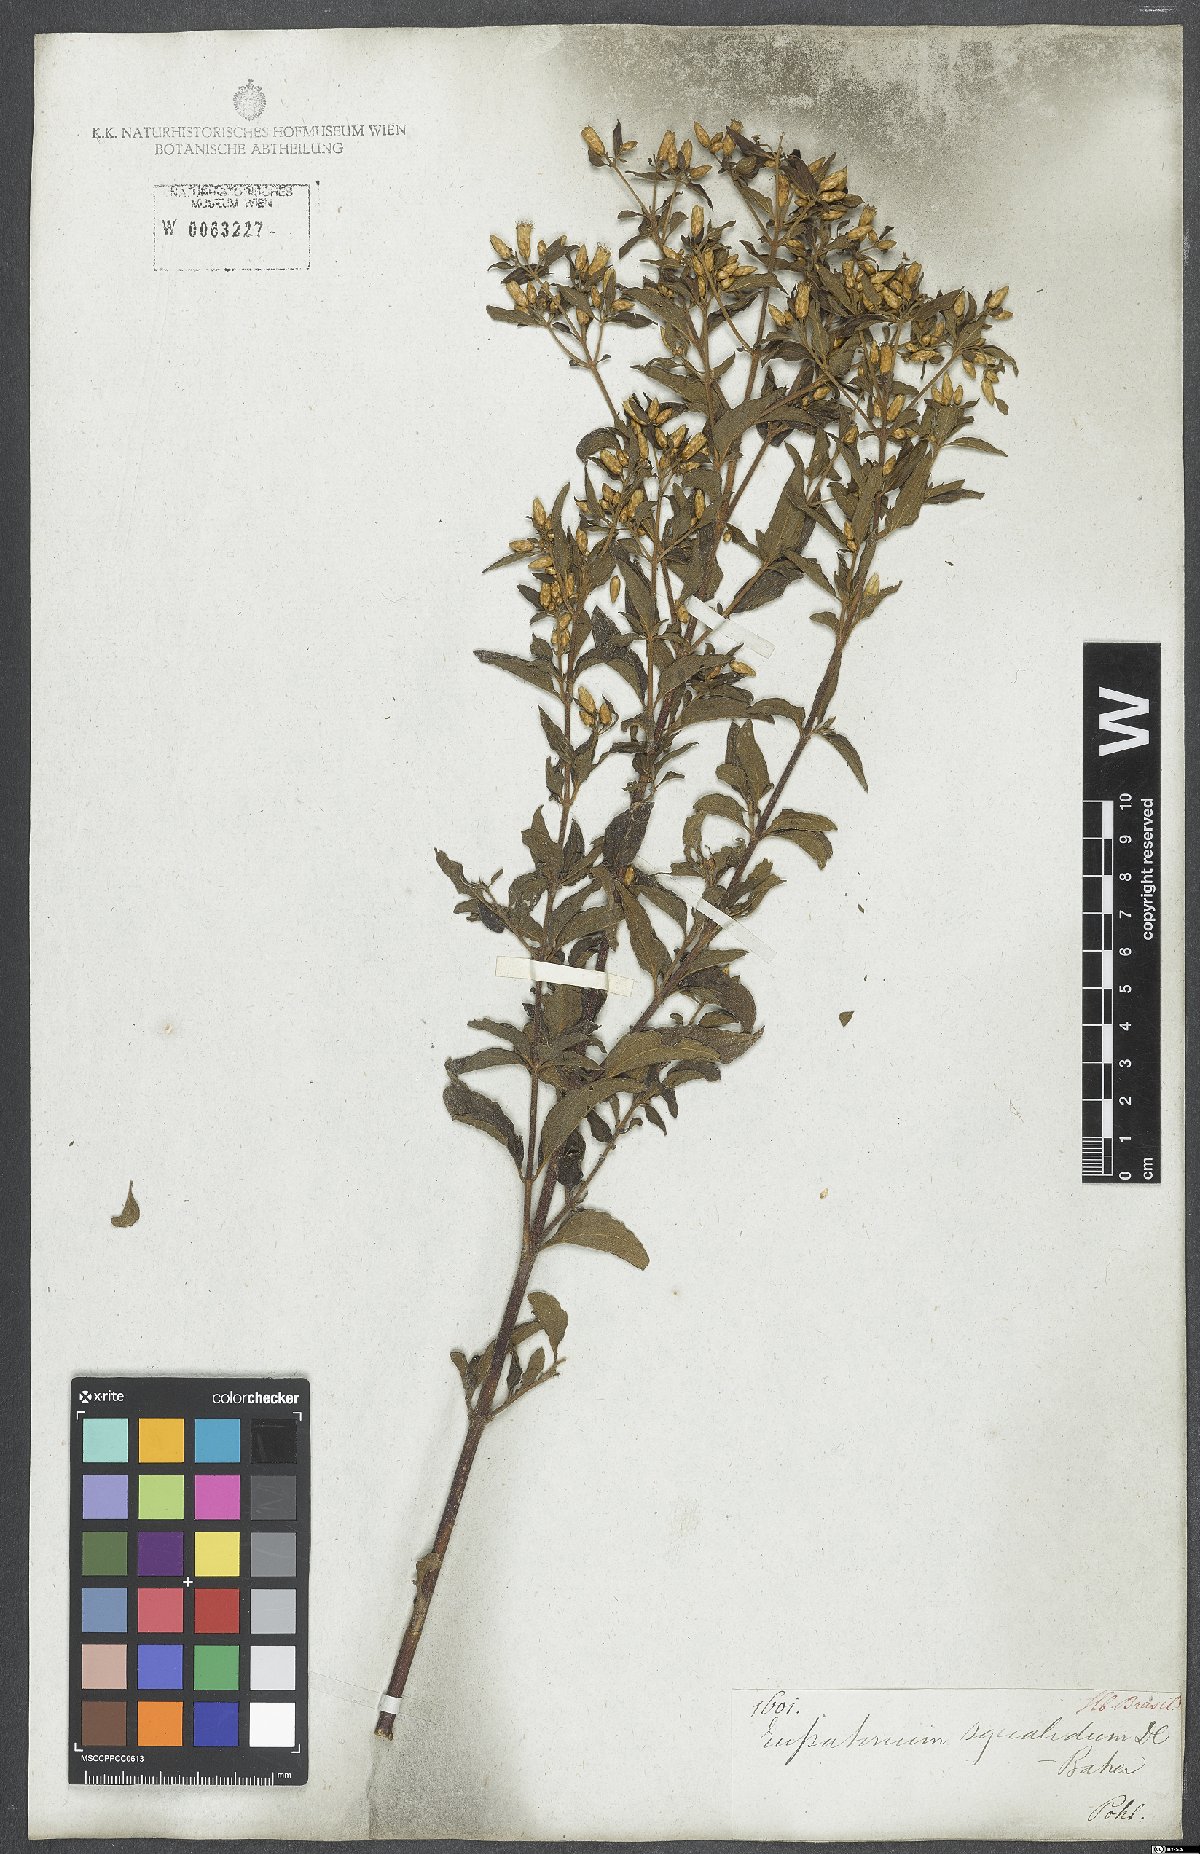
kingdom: Plantae
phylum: Tracheophyta
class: Magnoliopsida
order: Asterales
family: Asteraceae
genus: Chromolaena
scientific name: Chromolaena squalida
